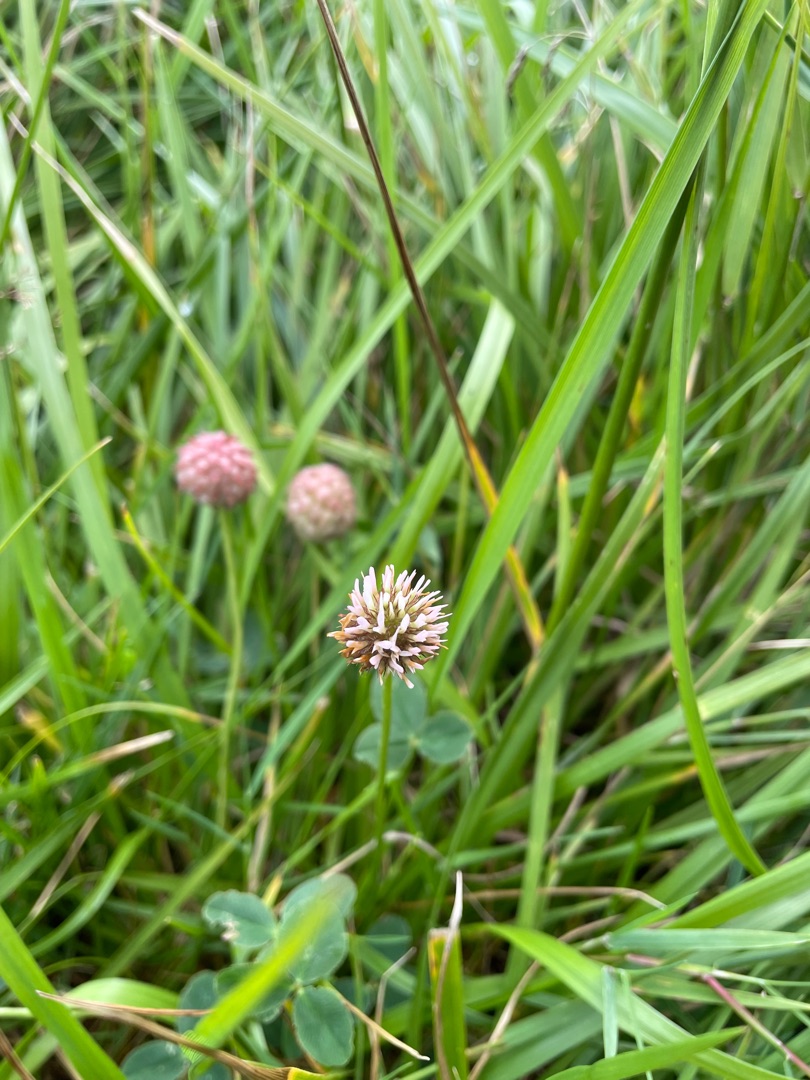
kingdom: Plantae
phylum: Tracheophyta
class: Magnoliopsida
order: Fabales
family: Fabaceae
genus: Trifolium
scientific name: Trifolium fragiferum
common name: Jordbær-kløver
